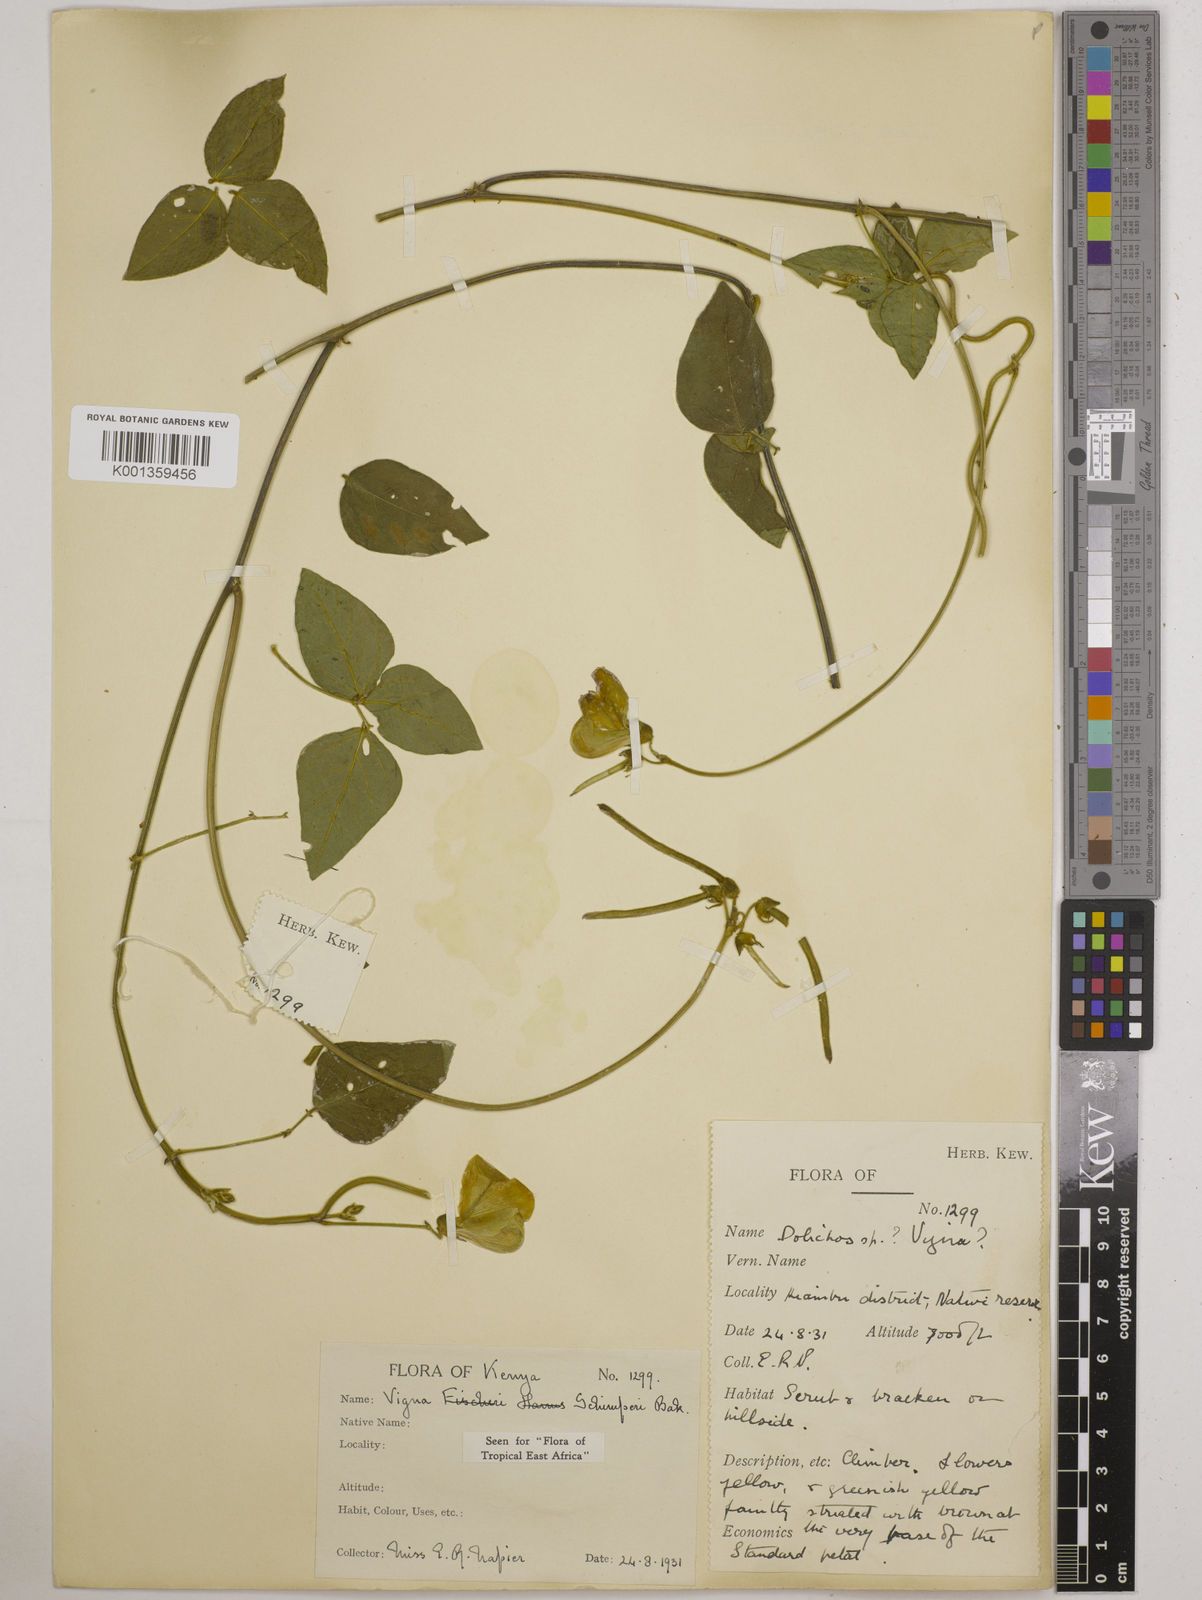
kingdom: Plantae
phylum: Tracheophyta
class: Magnoliopsida
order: Fabales
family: Fabaceae
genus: Vigna
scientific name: Vigna schimperi
